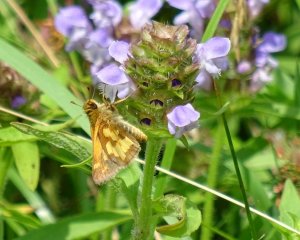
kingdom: Animalia
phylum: Arthropoda
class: Insecta
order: Lepidoptera
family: Hesperiidae
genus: Polites
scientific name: Polites coras
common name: Peck's Skipper
